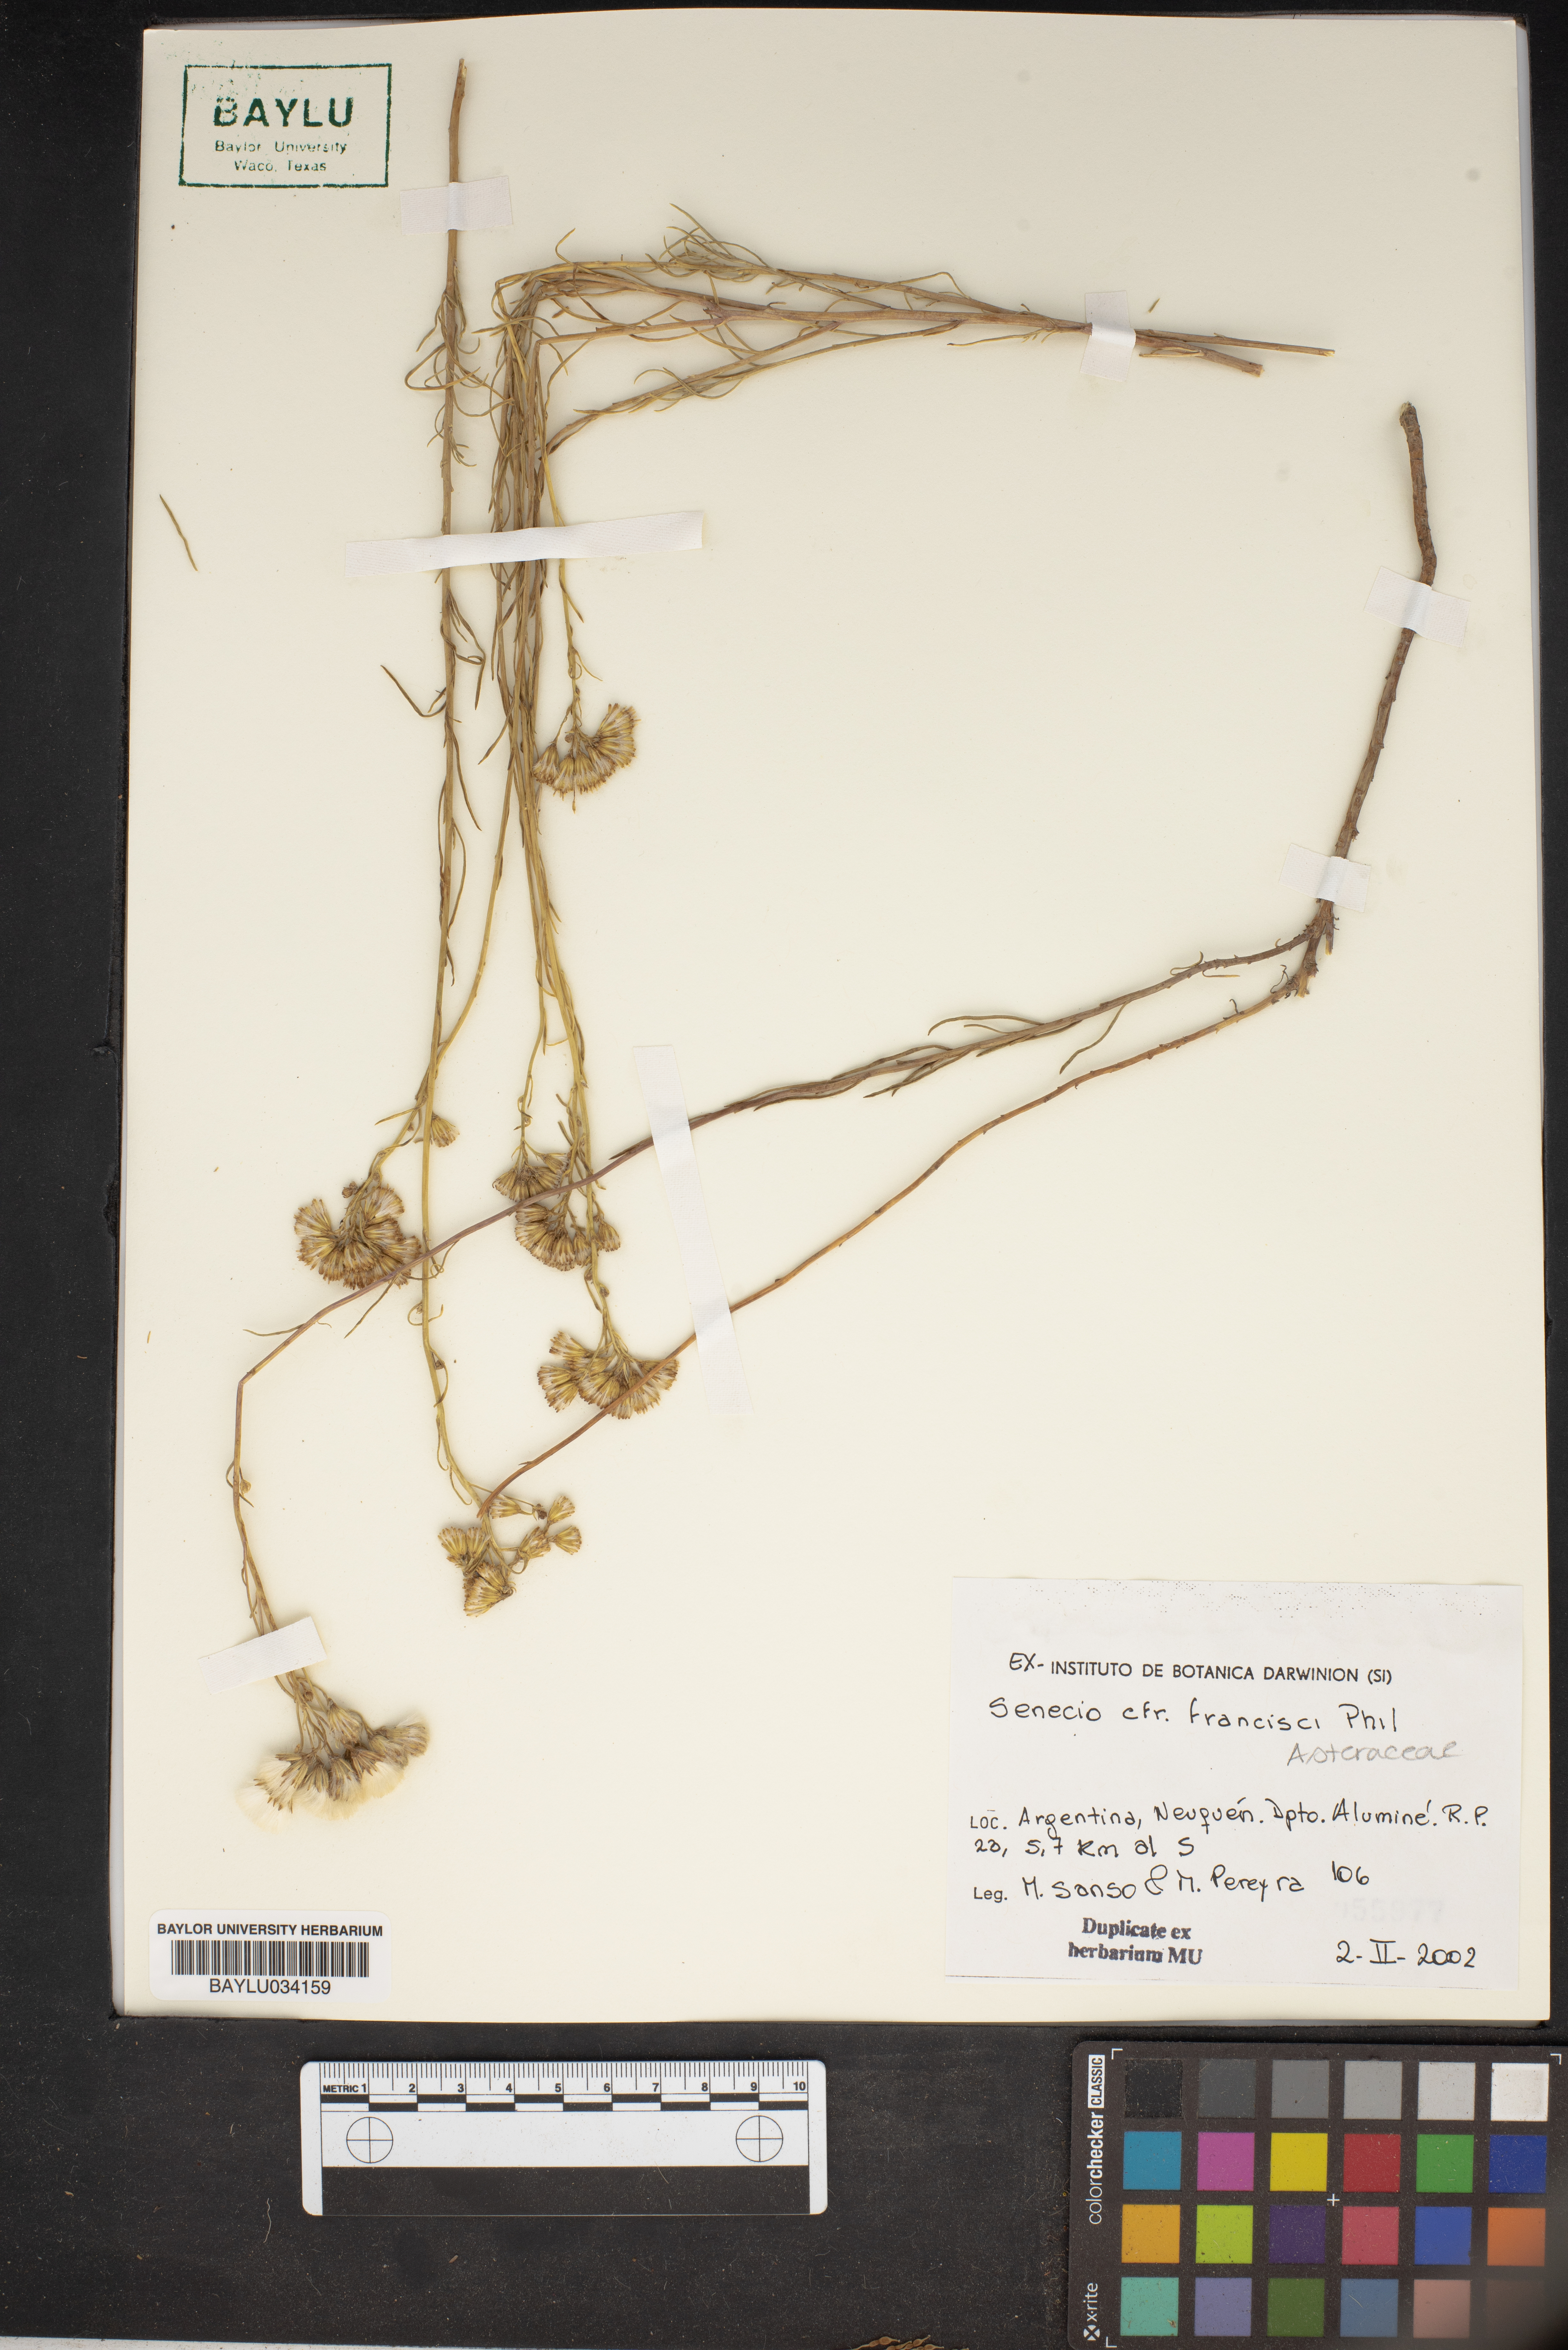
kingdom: Plantae
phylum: Tracheophyta
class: Magnoliopsida
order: Asterales
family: Asteraceae
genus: Senecio
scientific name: Senecio francisci
